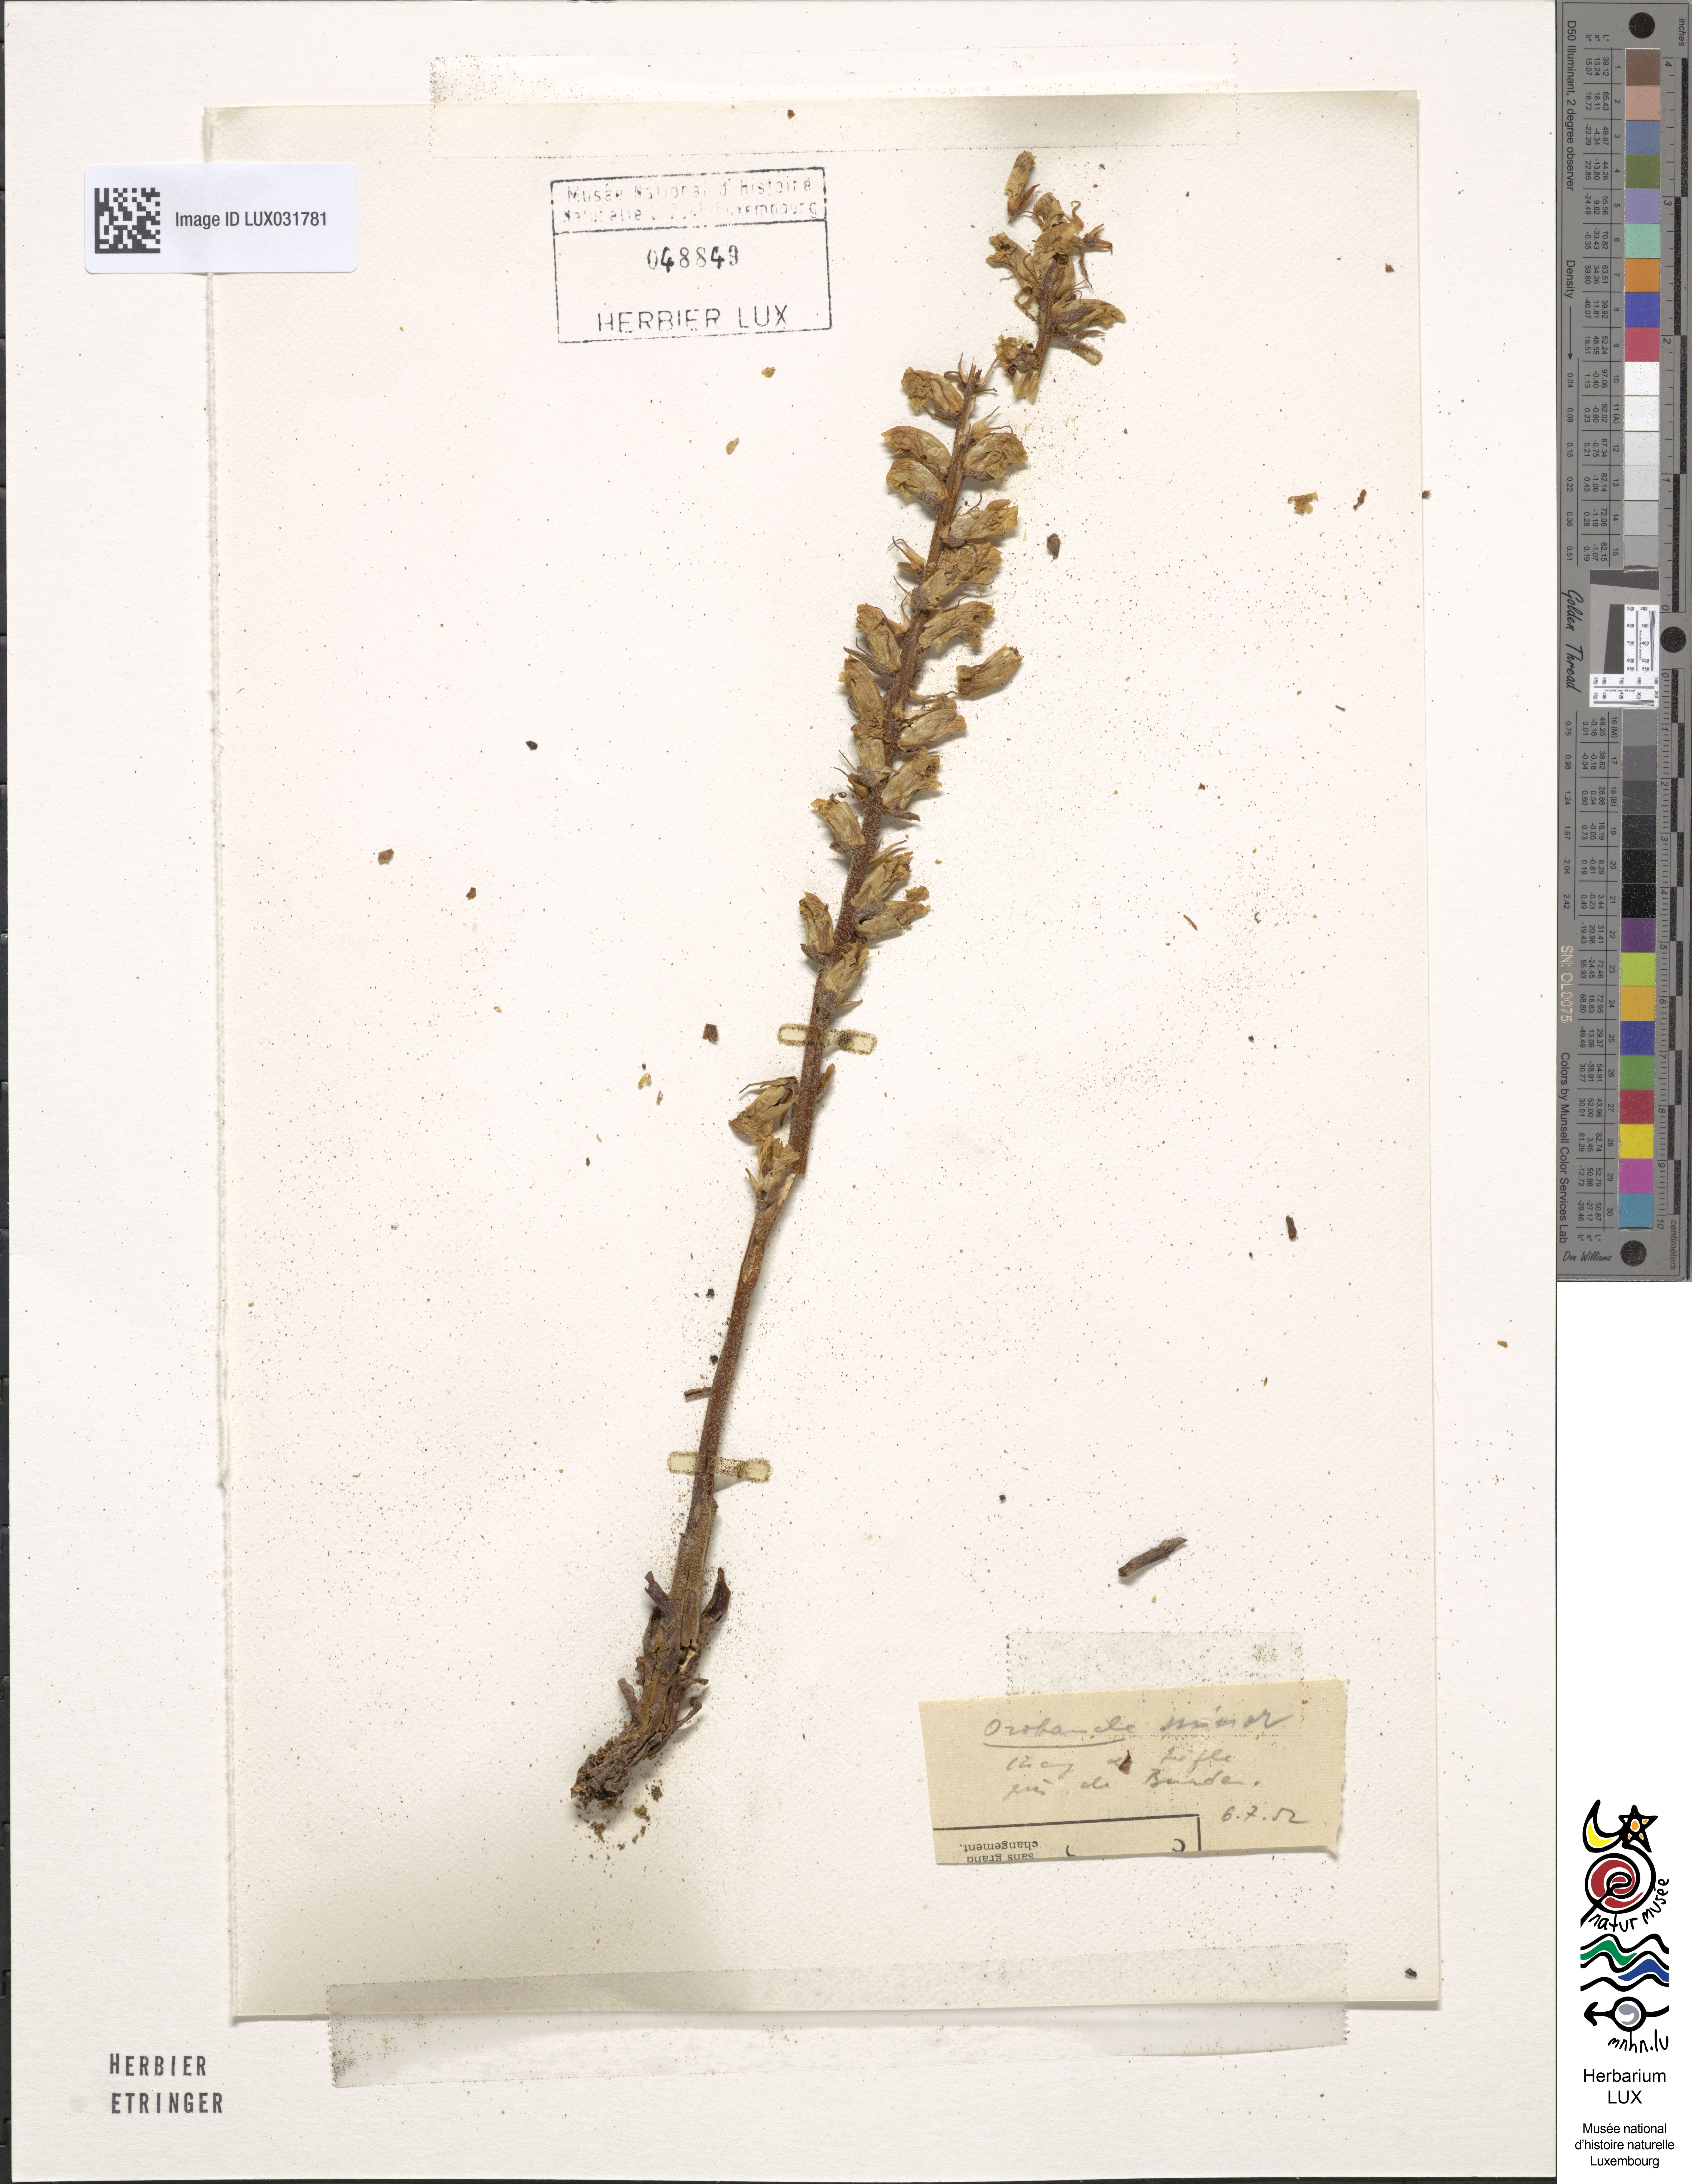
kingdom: Plantae
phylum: Tracheophyta
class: Magnoliopsida
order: Lamiales
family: Orobanchaceae
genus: Orobanche
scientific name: Orobanche minor
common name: Common broomrape
